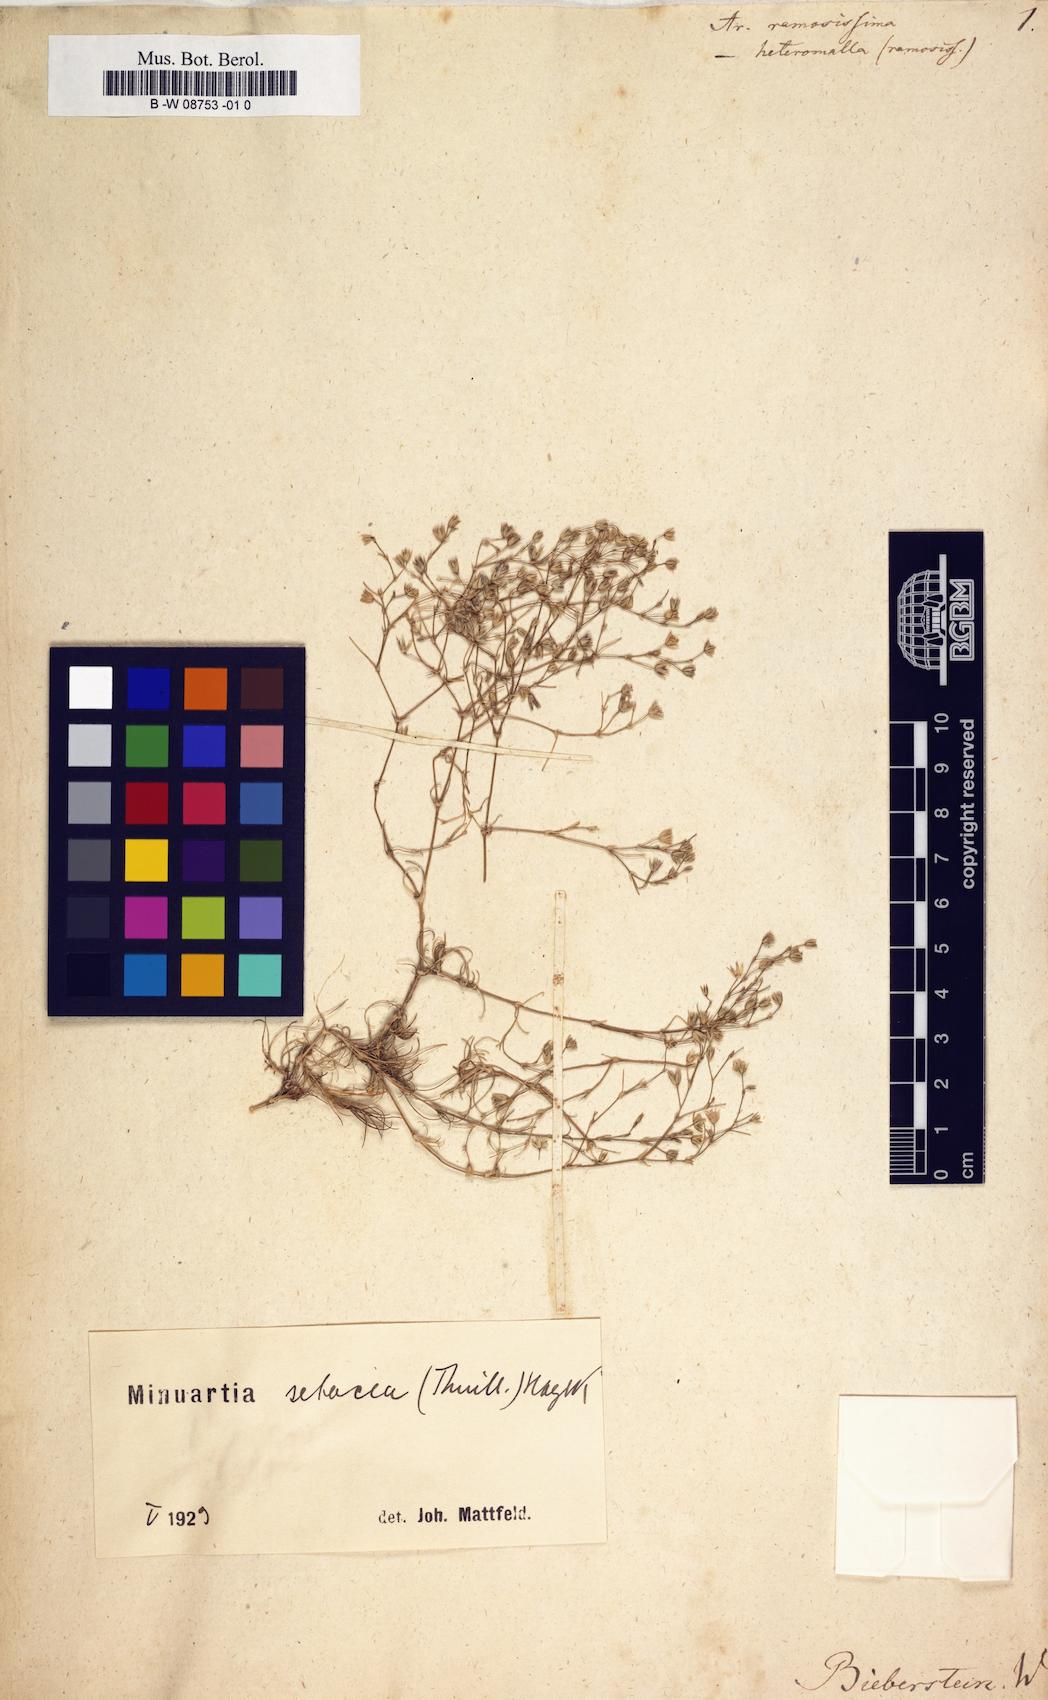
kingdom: Plantae
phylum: Tracheophyta
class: Magnoliopsida
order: Caryophyllales
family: Caryophyllaceae
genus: Sabulina
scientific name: Sabulina attica
